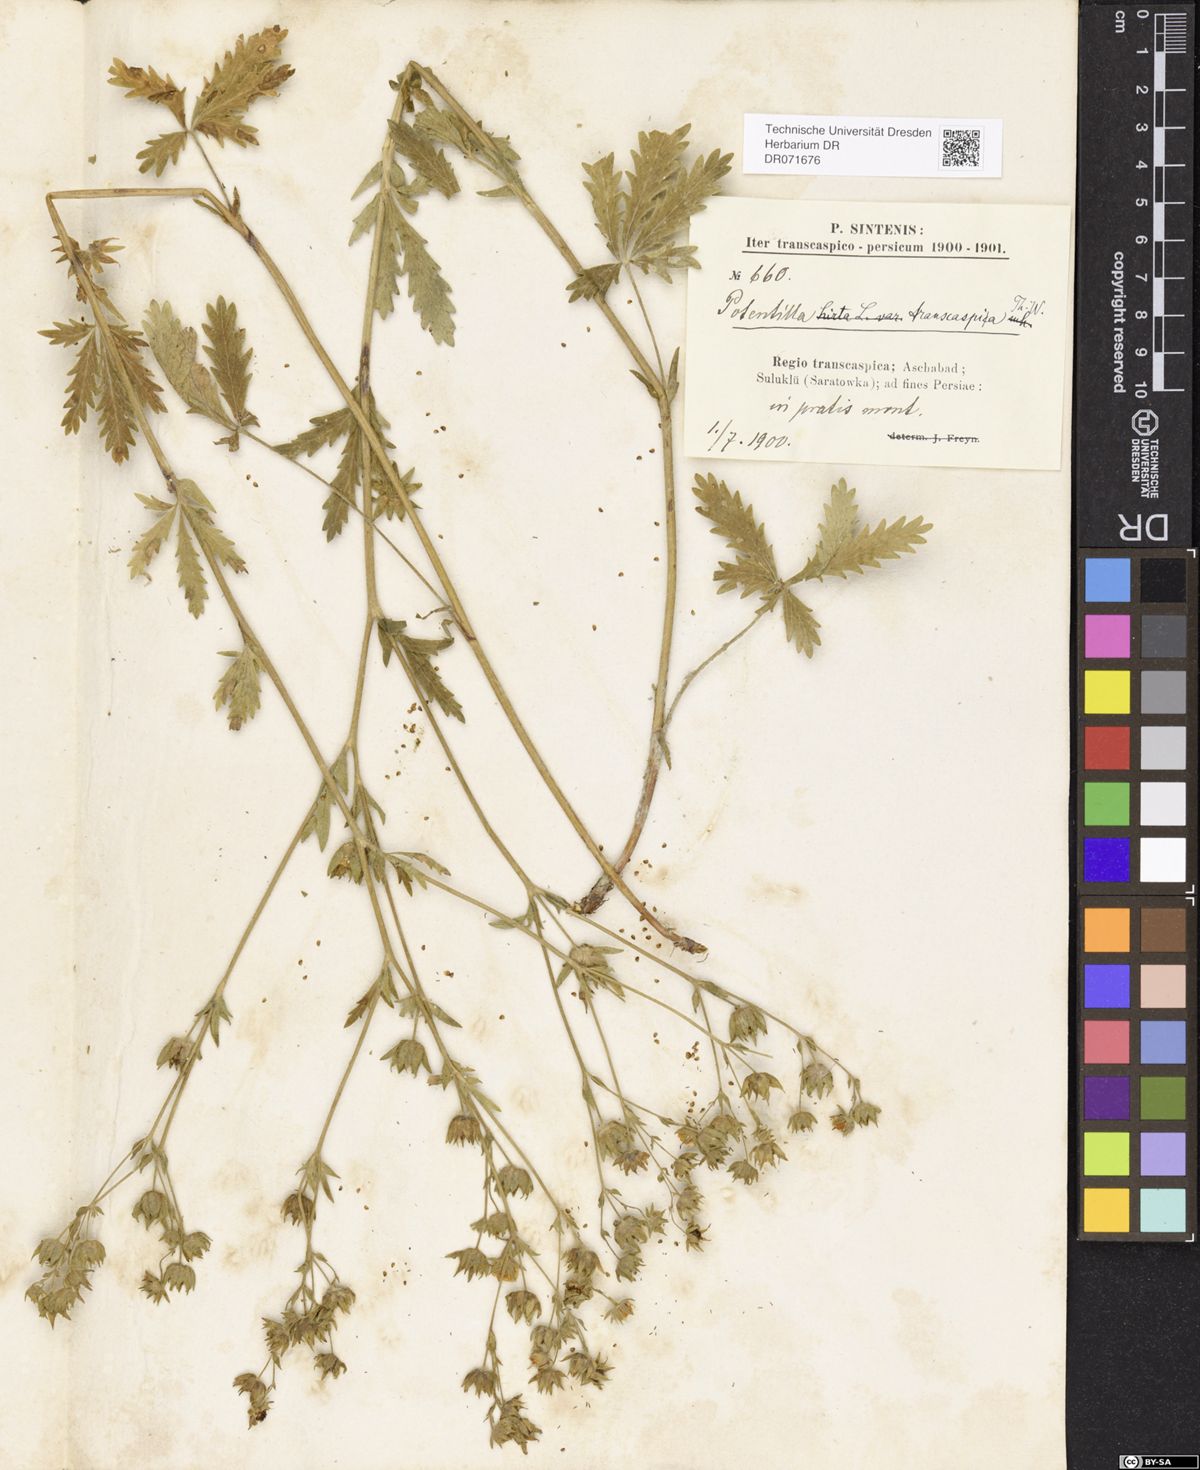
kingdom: Plantae
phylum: Tracheophyta
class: Magnoliopsida
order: Rosales
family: Rosaceae
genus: Potentilla
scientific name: Potentilla pedata
